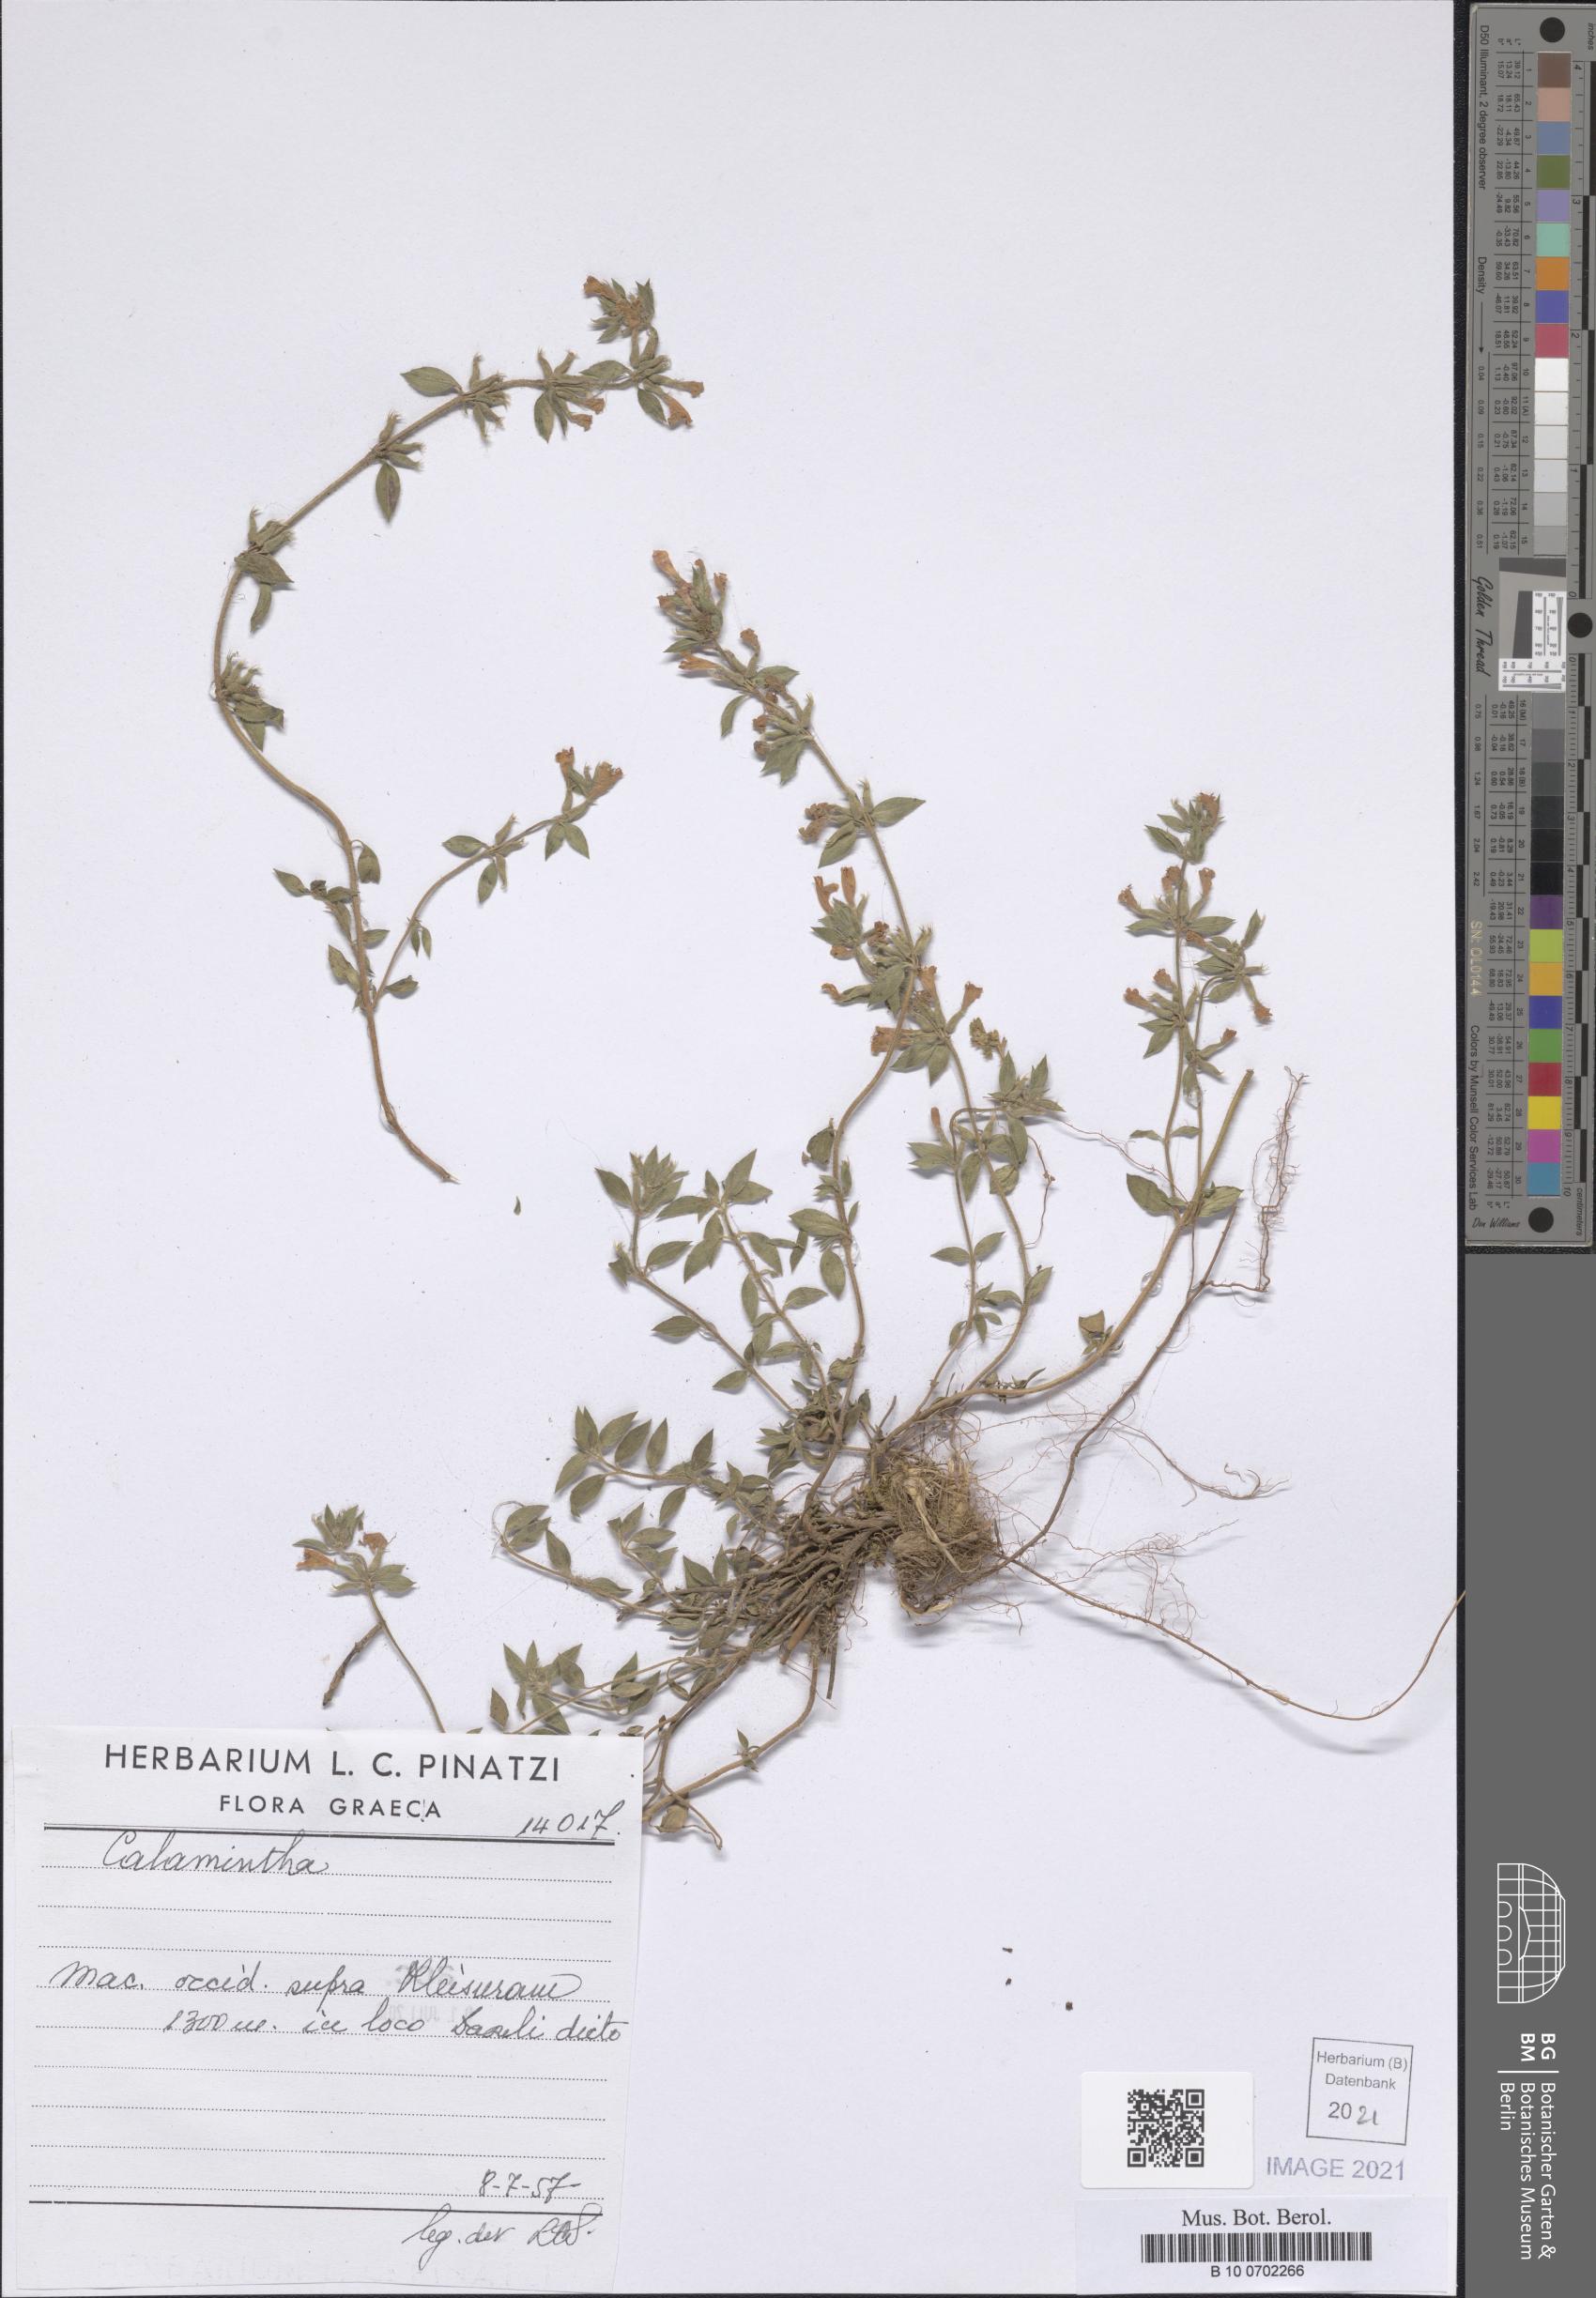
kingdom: Plantae
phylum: Tracheophyta
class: Magnoliopsida
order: Lamiales
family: Lamiaceae
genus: Clinopodium
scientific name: Clinopodium alpinum
